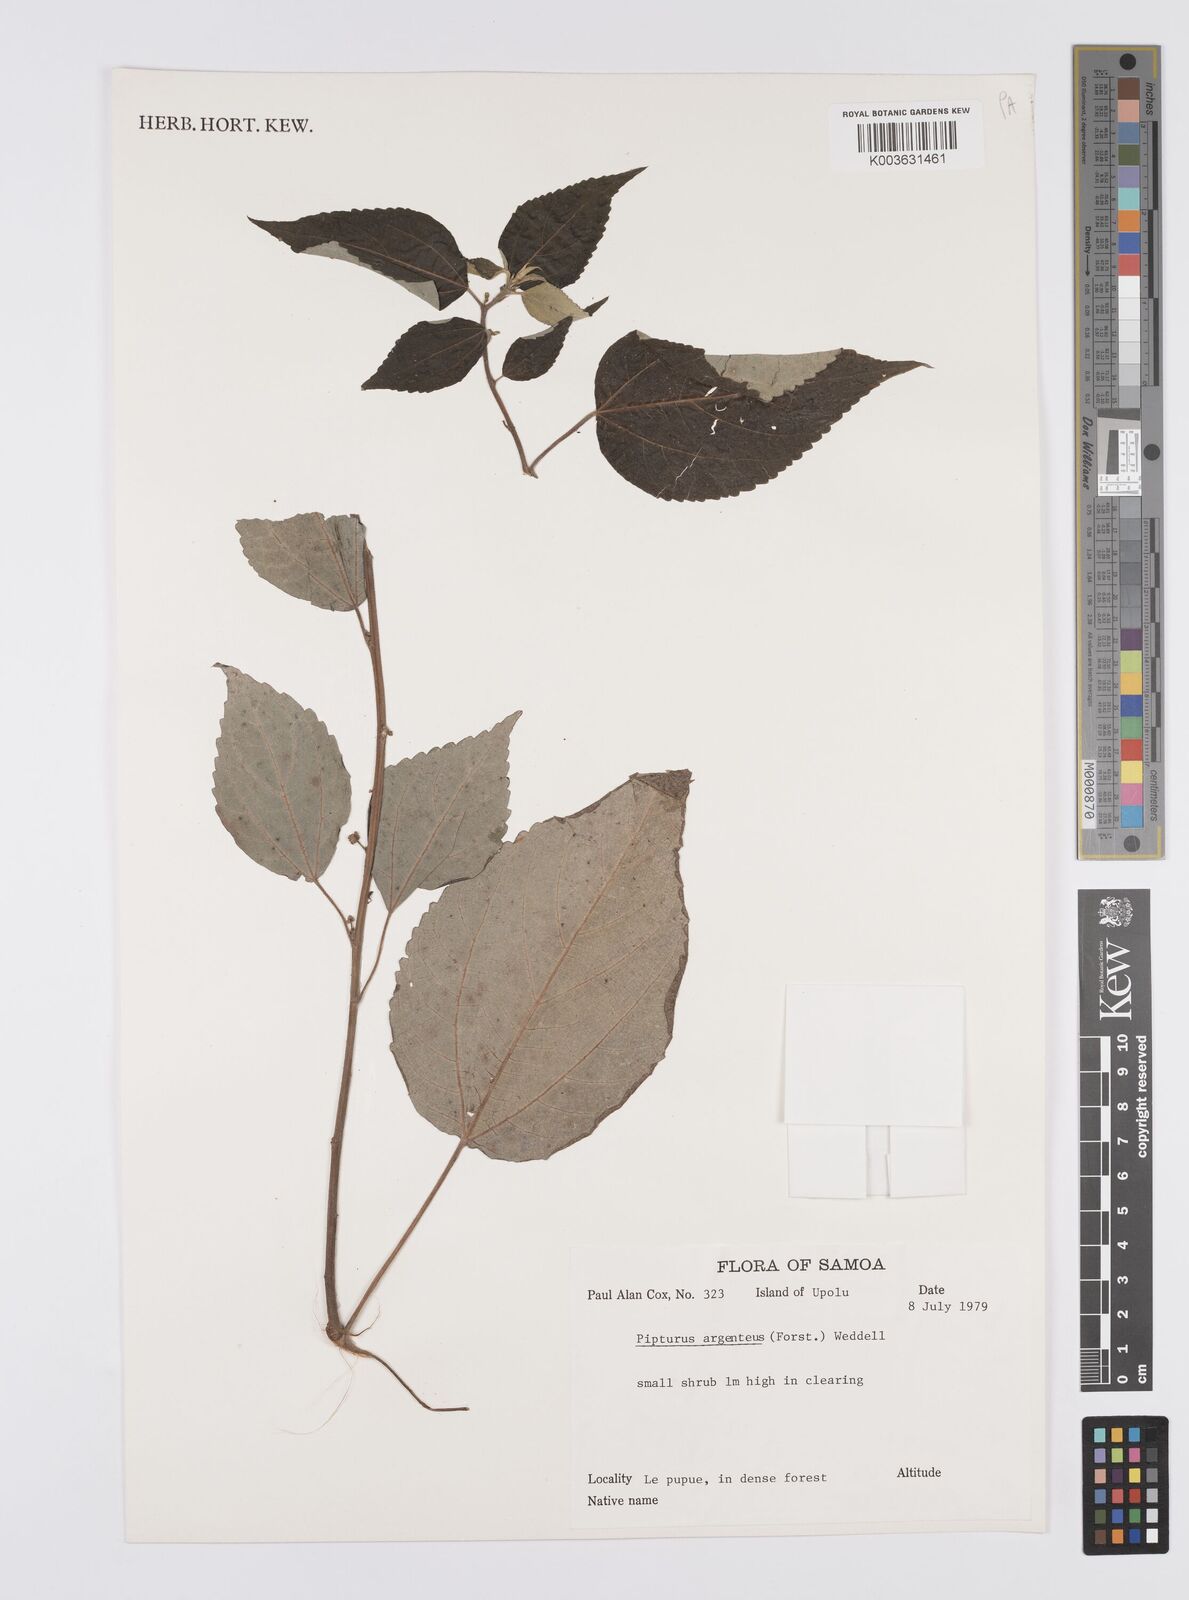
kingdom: Plantae
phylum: Tracheophyta
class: Magnoliopsida
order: Rosales
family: Urticaceae
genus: Pipturus
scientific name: Pipturus argenteus
